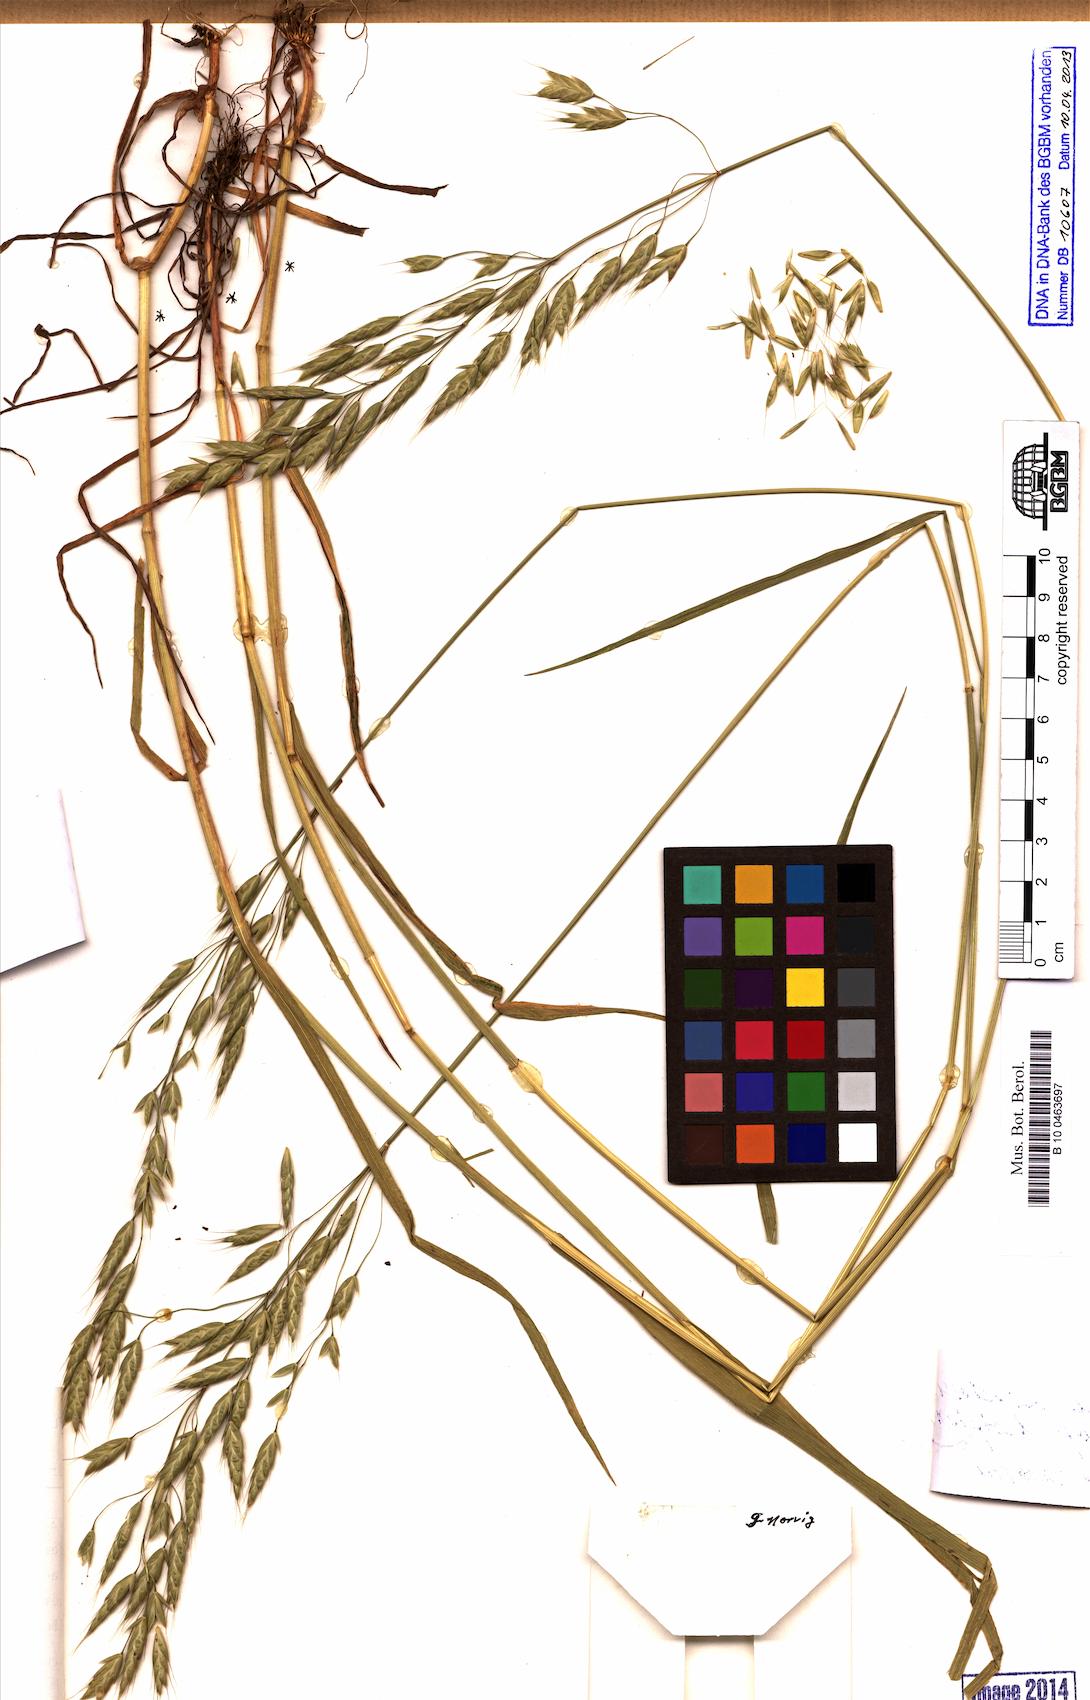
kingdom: Plantae
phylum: Tracheophyta
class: Liliopsida
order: Poales
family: Poaceae
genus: Bromus
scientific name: Bromus commutatus
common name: Meadow brome
